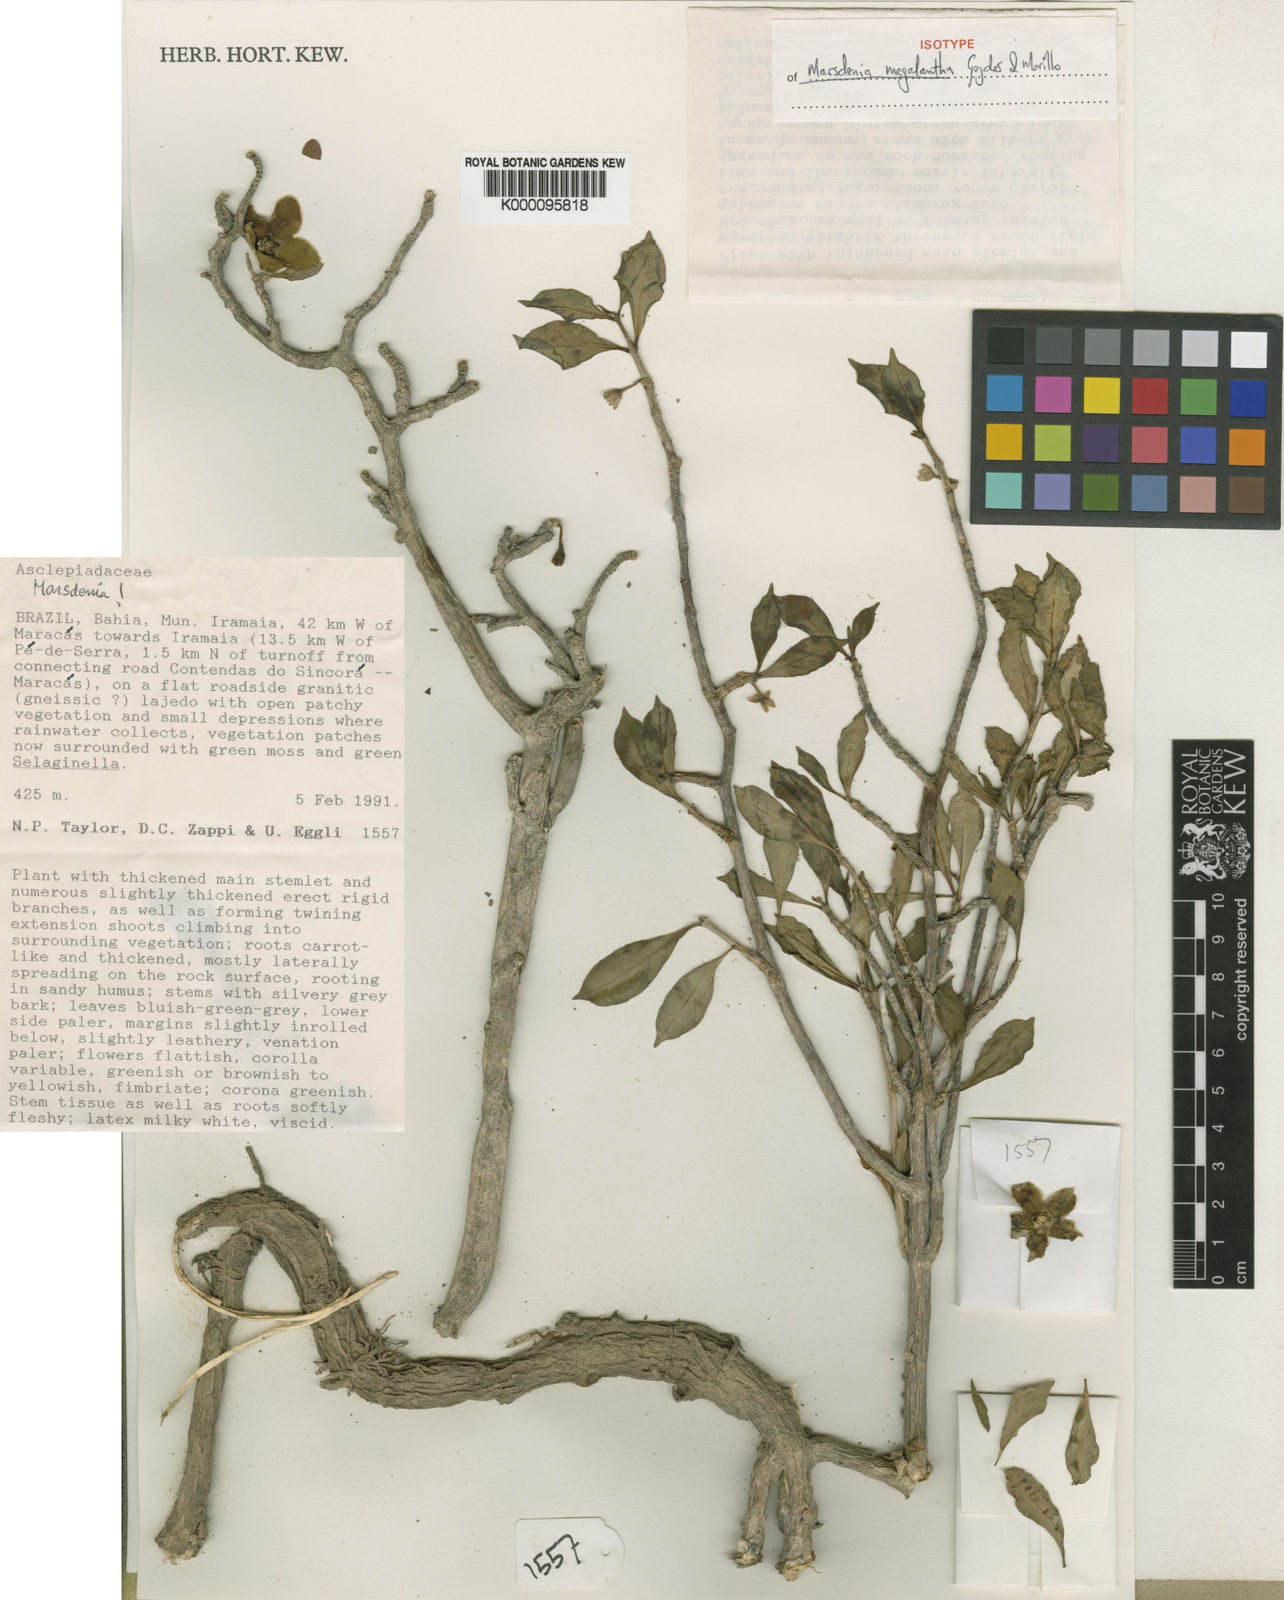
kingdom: Plantae
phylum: Tracheophyta
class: Magnoliopsida
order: Gentianales
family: Apocynaceae
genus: Ruehssia
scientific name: Ruehssia megalantha
